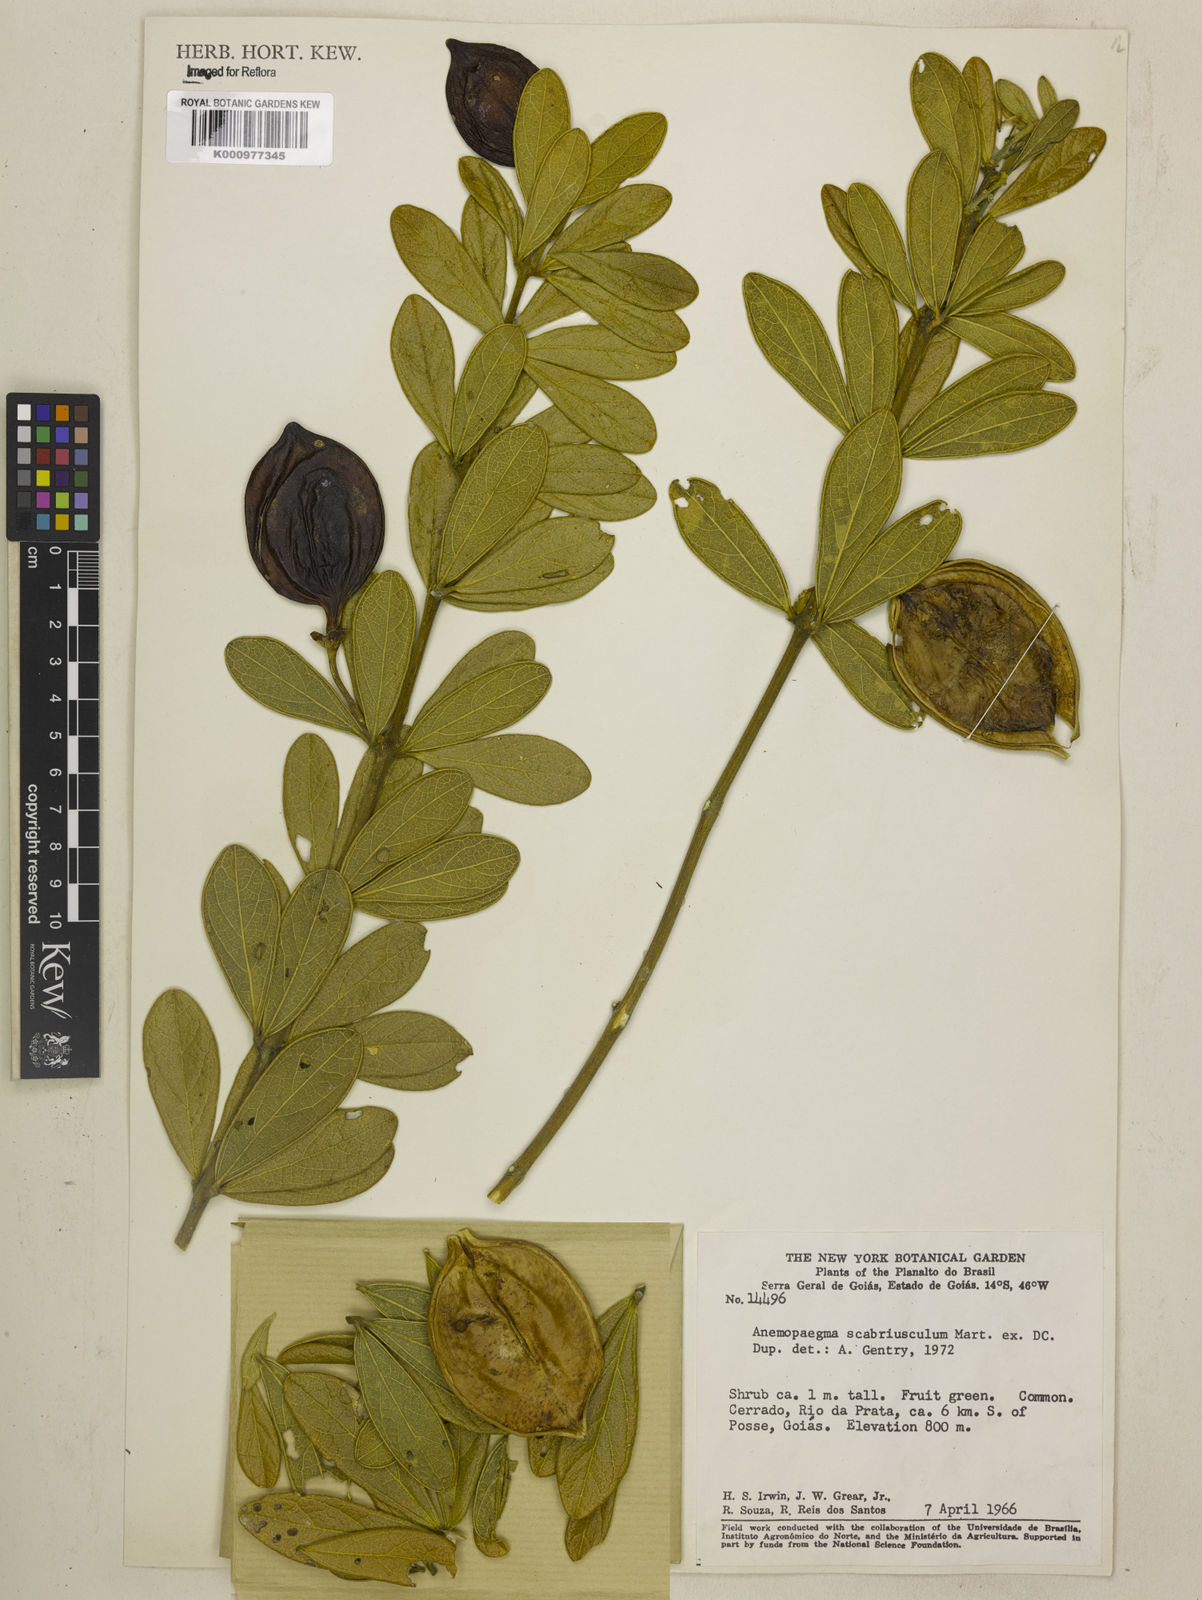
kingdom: Plantae
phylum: Tracheophyta
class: Magnoliopsida
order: Lamiales
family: Bignoniaceae
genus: Anemopaegma
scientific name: Anemopaegma scabriusculum
